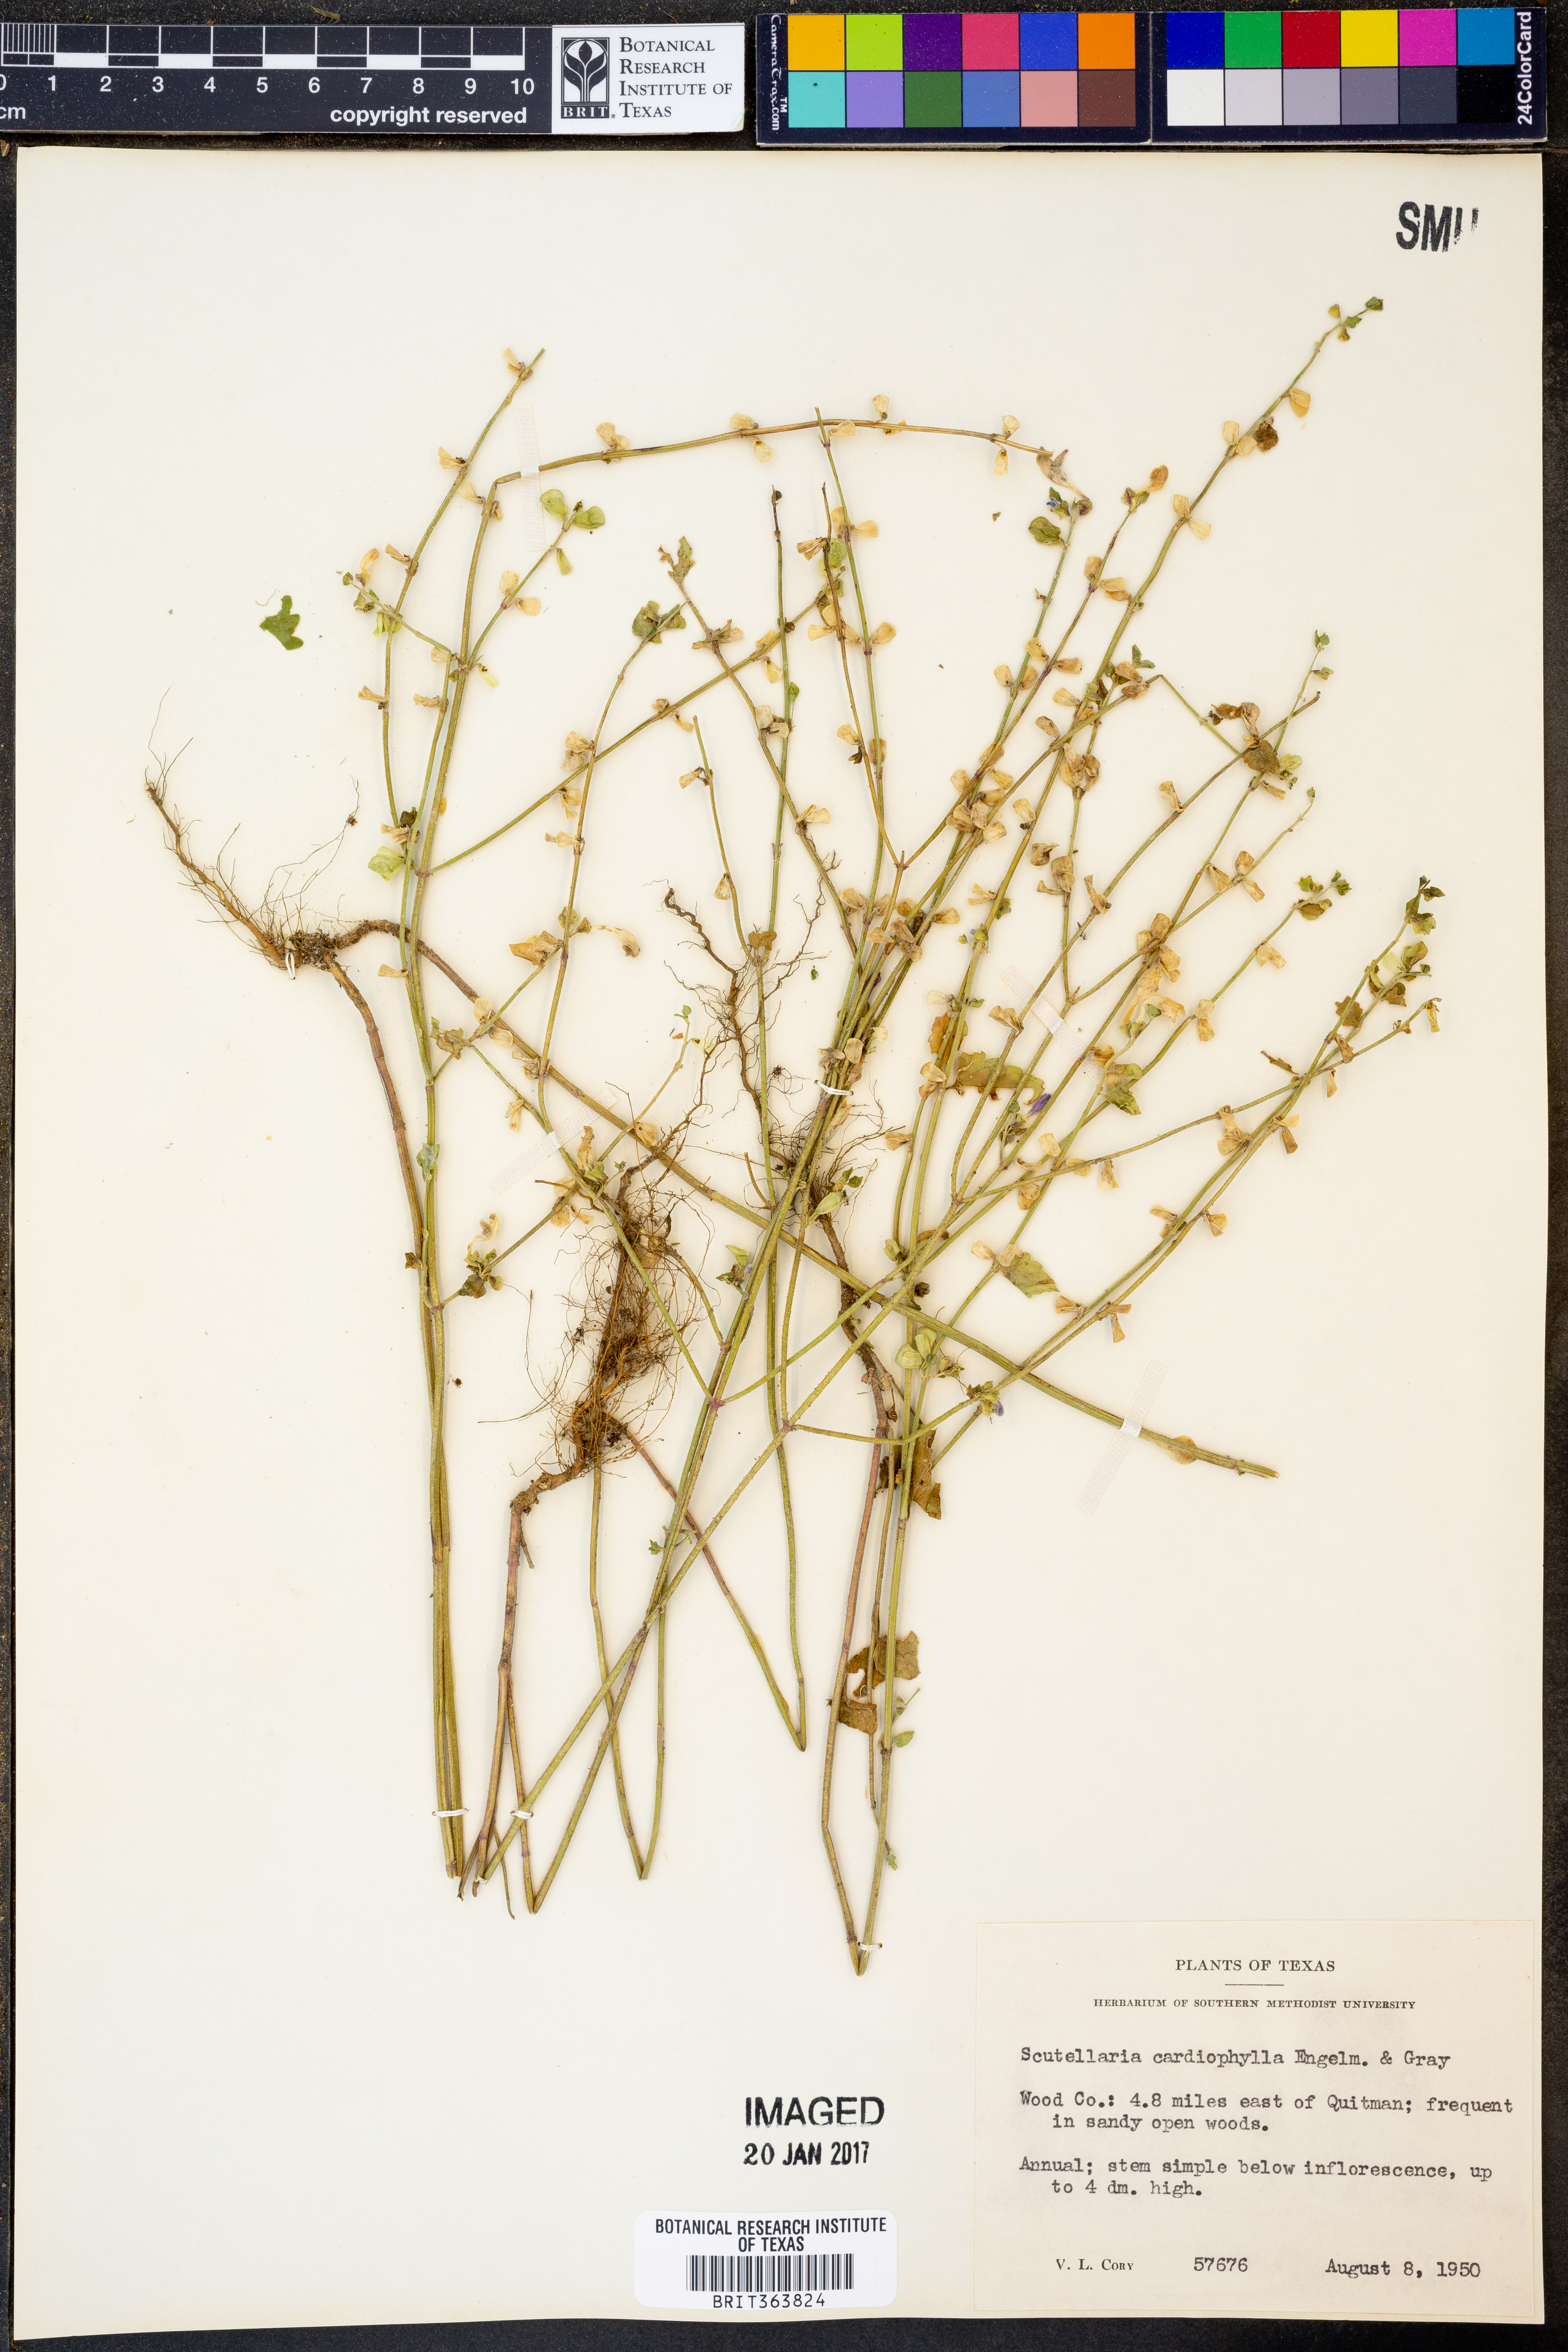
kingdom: Plantae
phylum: Tracheophyta
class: Magnoliopsida
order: Lamiales
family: Lamiaceae
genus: Scutellaria
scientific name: Scutellaria cardiophylla
